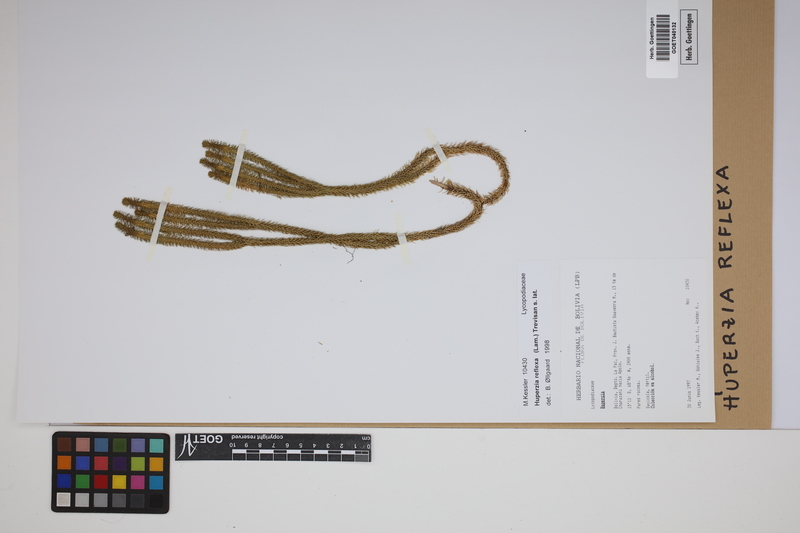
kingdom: Plantae
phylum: Tracheophyta
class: Lycopodiopsida
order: Lycopodiales
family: Lycopodiaceae
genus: Phlegmariurus
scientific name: Phlegmariurus reflexus
